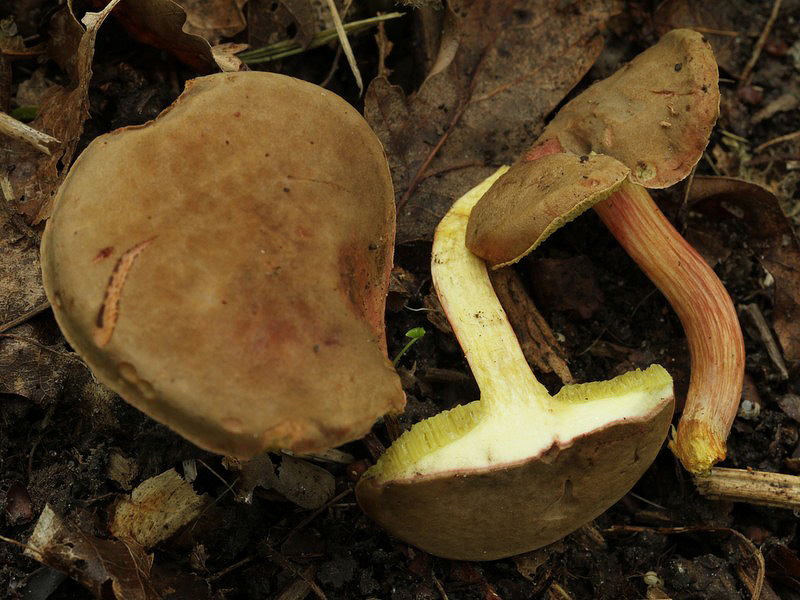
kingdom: Fungi
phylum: Basidiomycota
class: Agaricomycetes
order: Boletales
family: Boletaceae
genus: Hortiboletus
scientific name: Hortiboletus engelii
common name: fersken-rørhat
